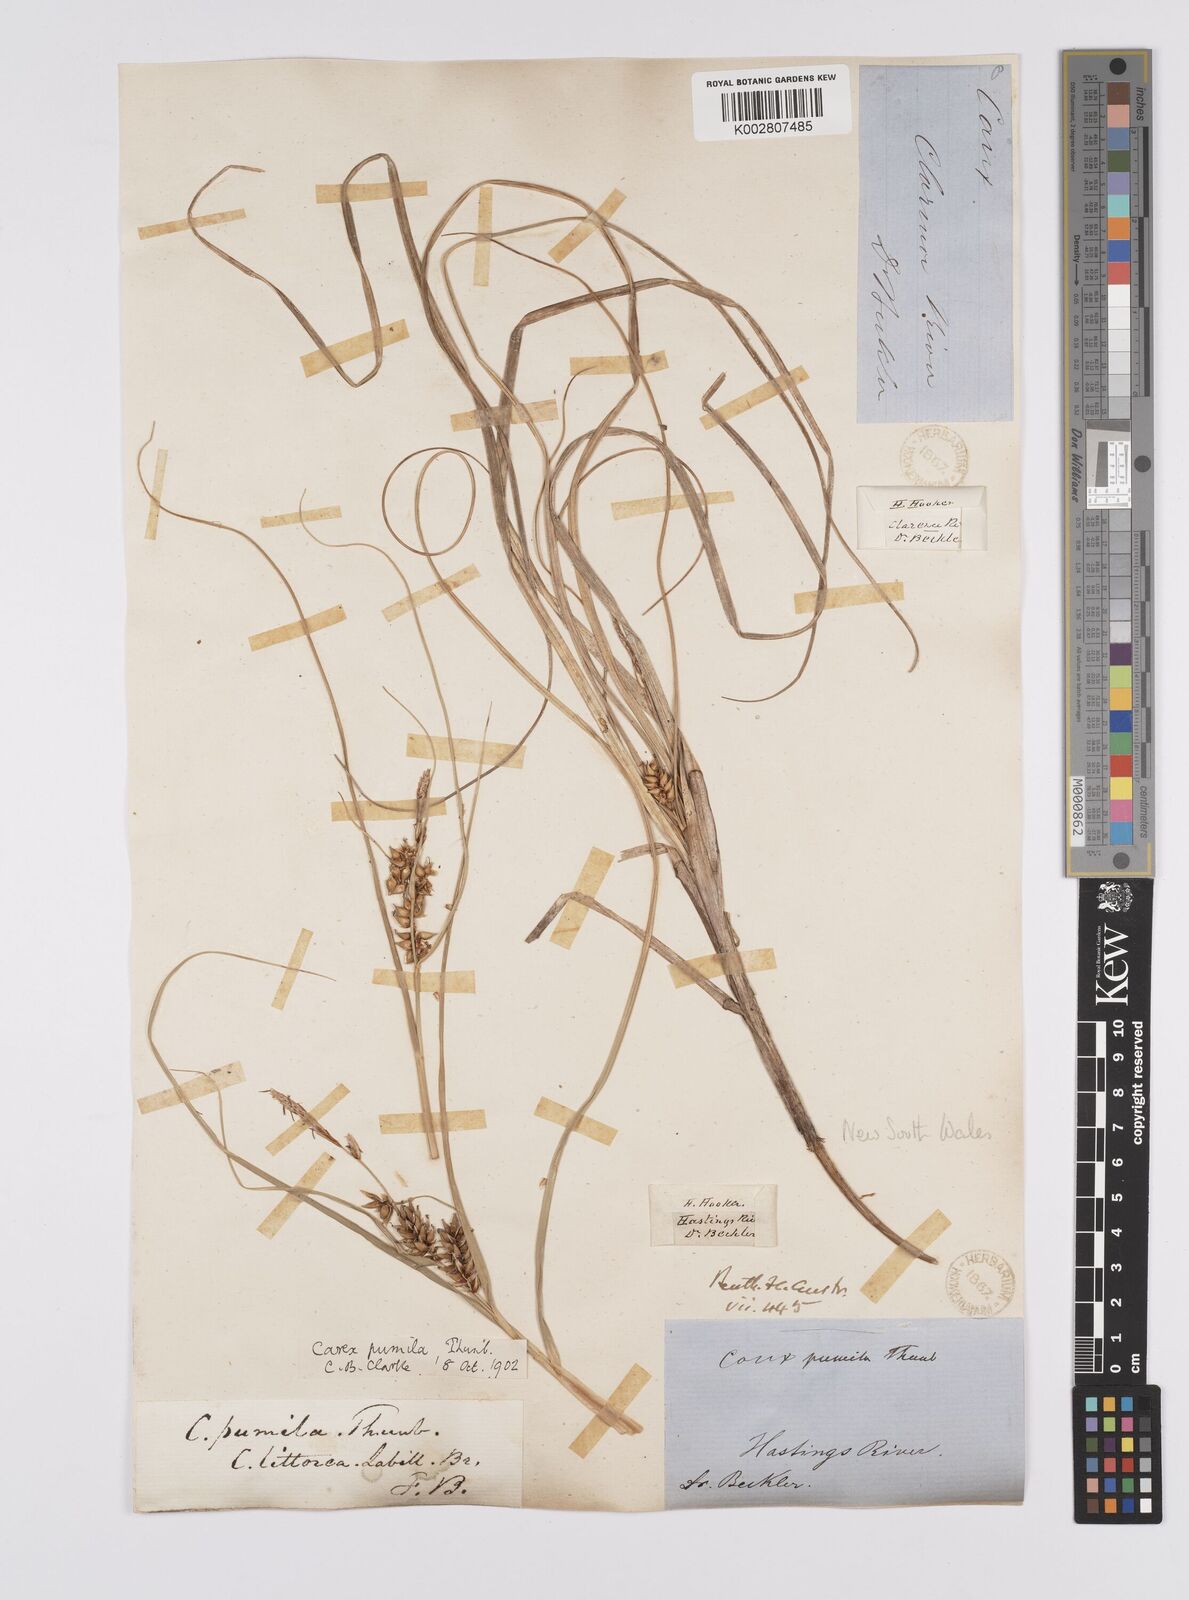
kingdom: Plantae
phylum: Tracheophyta
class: Liliopsida
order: Poales
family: Cyperaceae
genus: Carex
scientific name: Carex pumila
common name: Dwarf sedge
